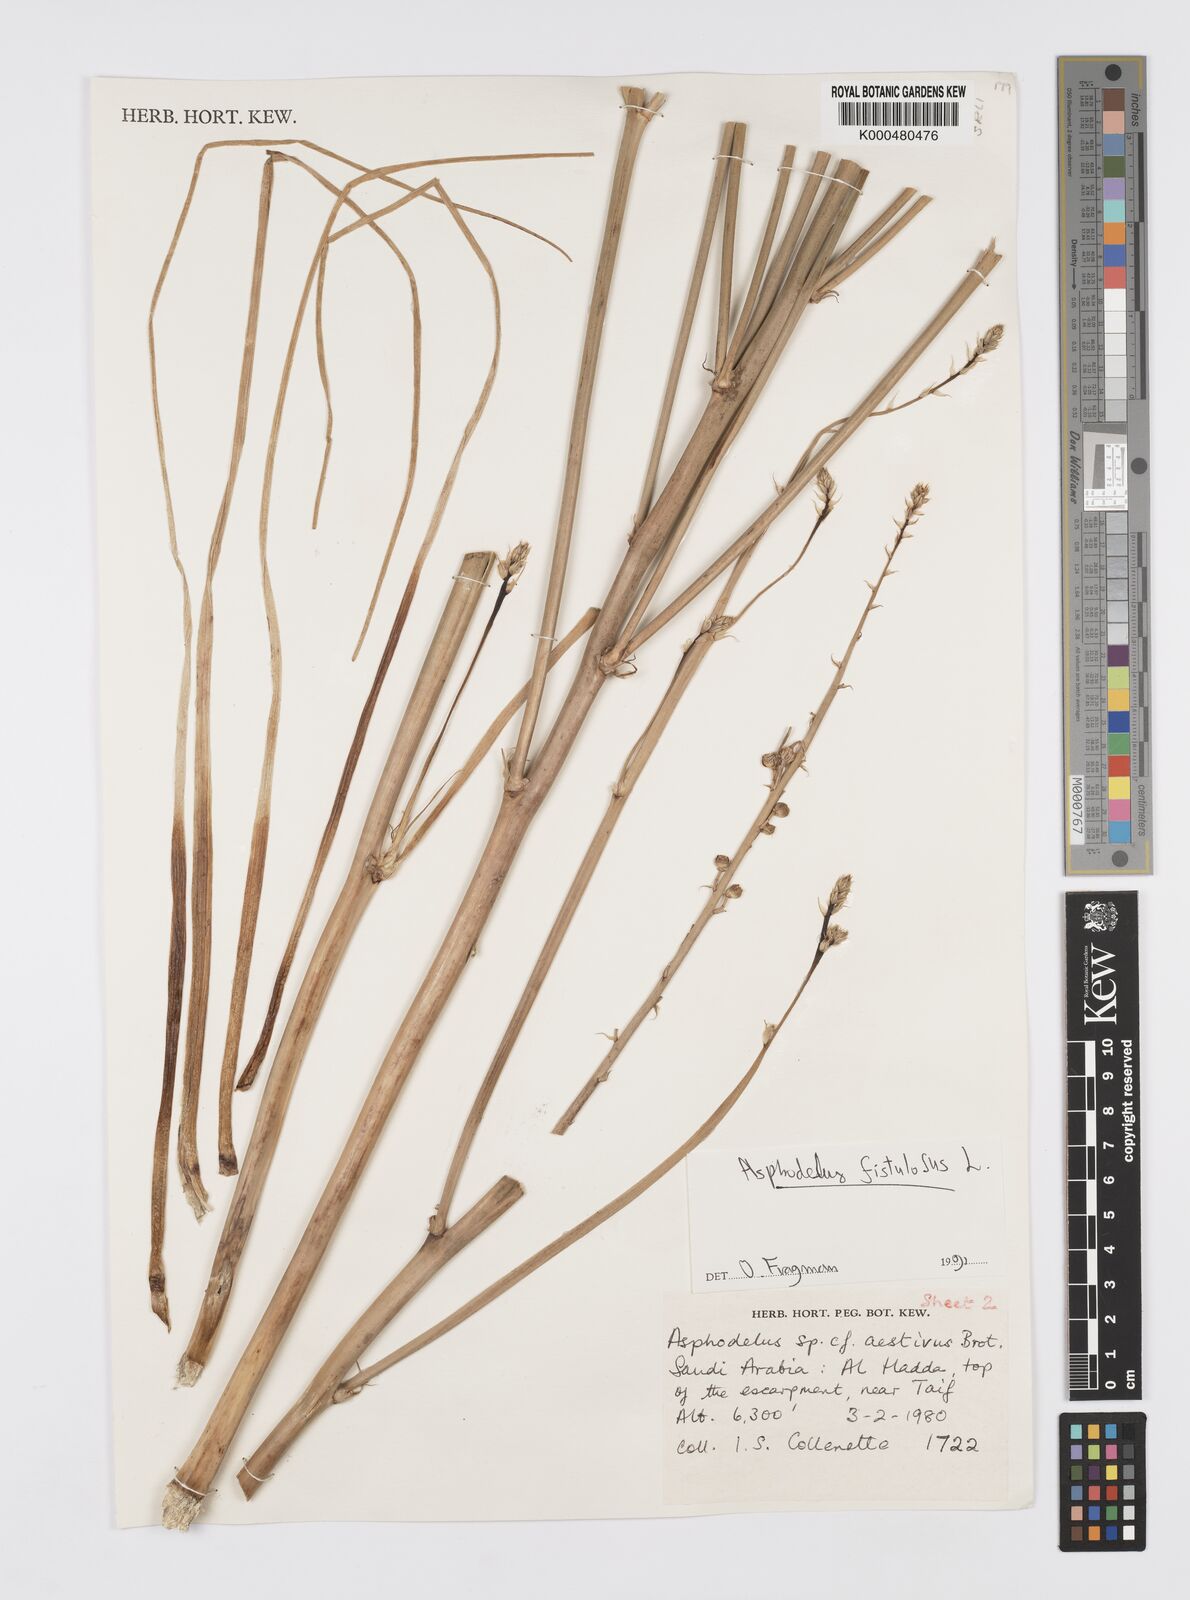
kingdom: Plantae
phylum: Tracheophyta
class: Liliopsida
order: Asparagales
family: Asphodelaceae
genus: Asphodelus
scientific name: Asphodelus fistulosus
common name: Onionweed
